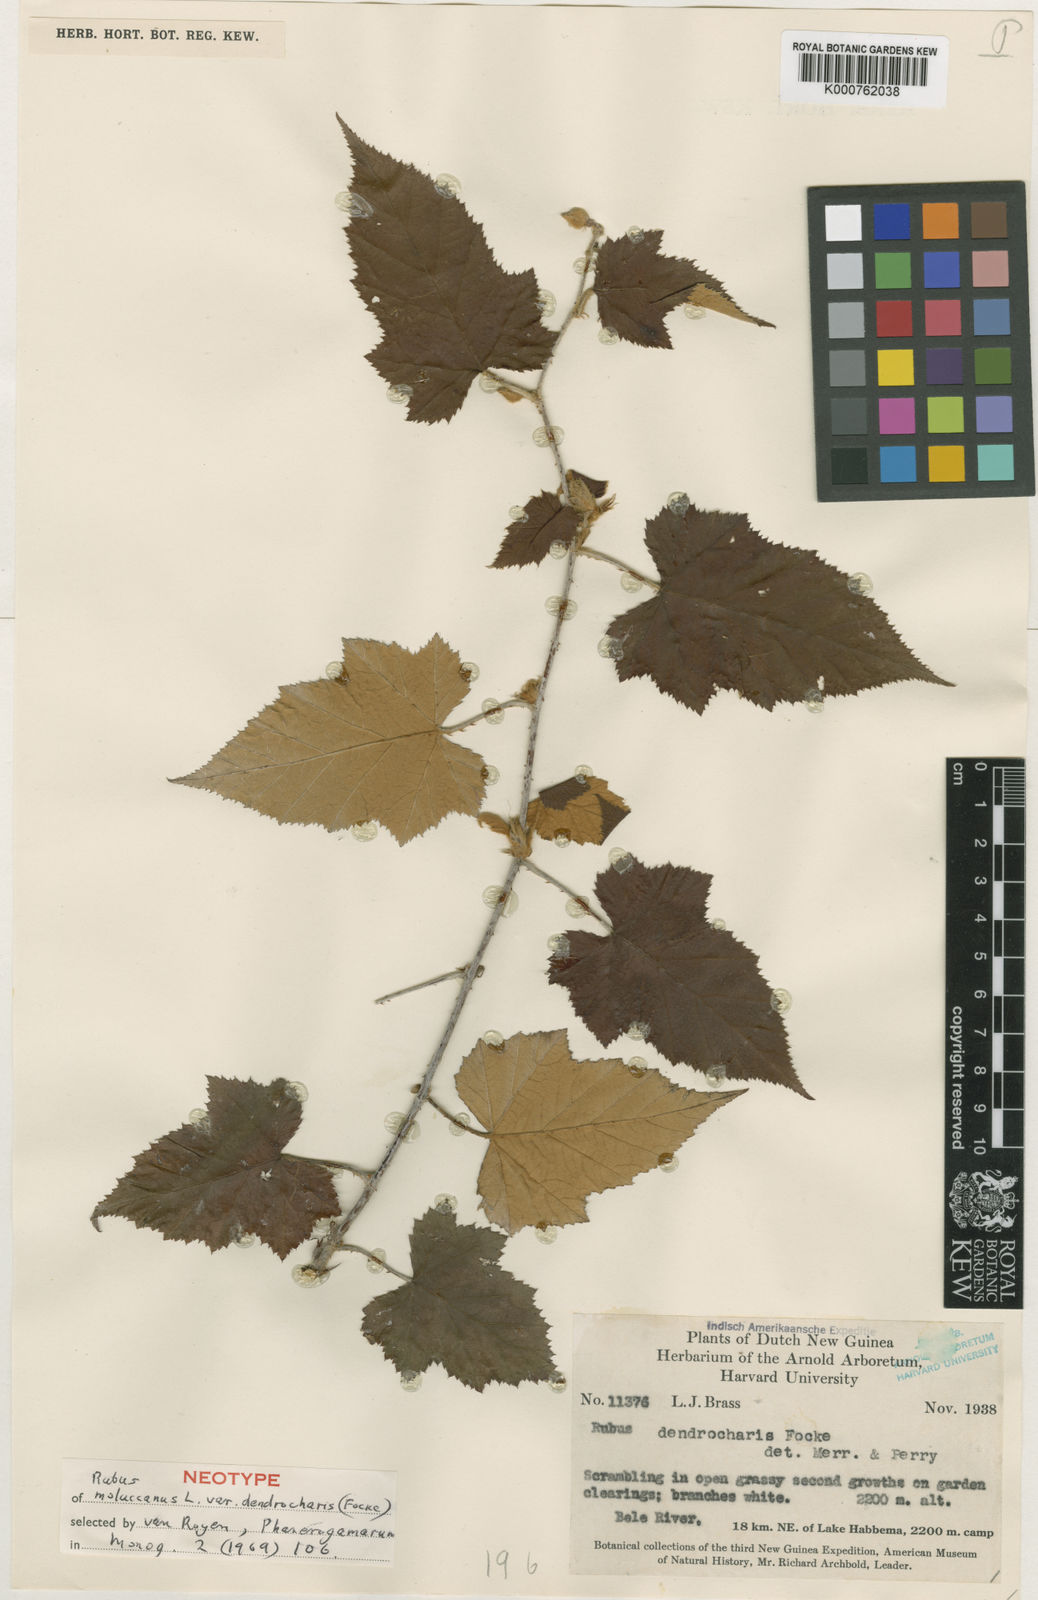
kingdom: Plantae
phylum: Tracheophyta
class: Magnoliopsida
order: Rosales
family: Rosaceae
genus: Rubus
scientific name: Rubus moluccanus
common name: Wild raspberry
